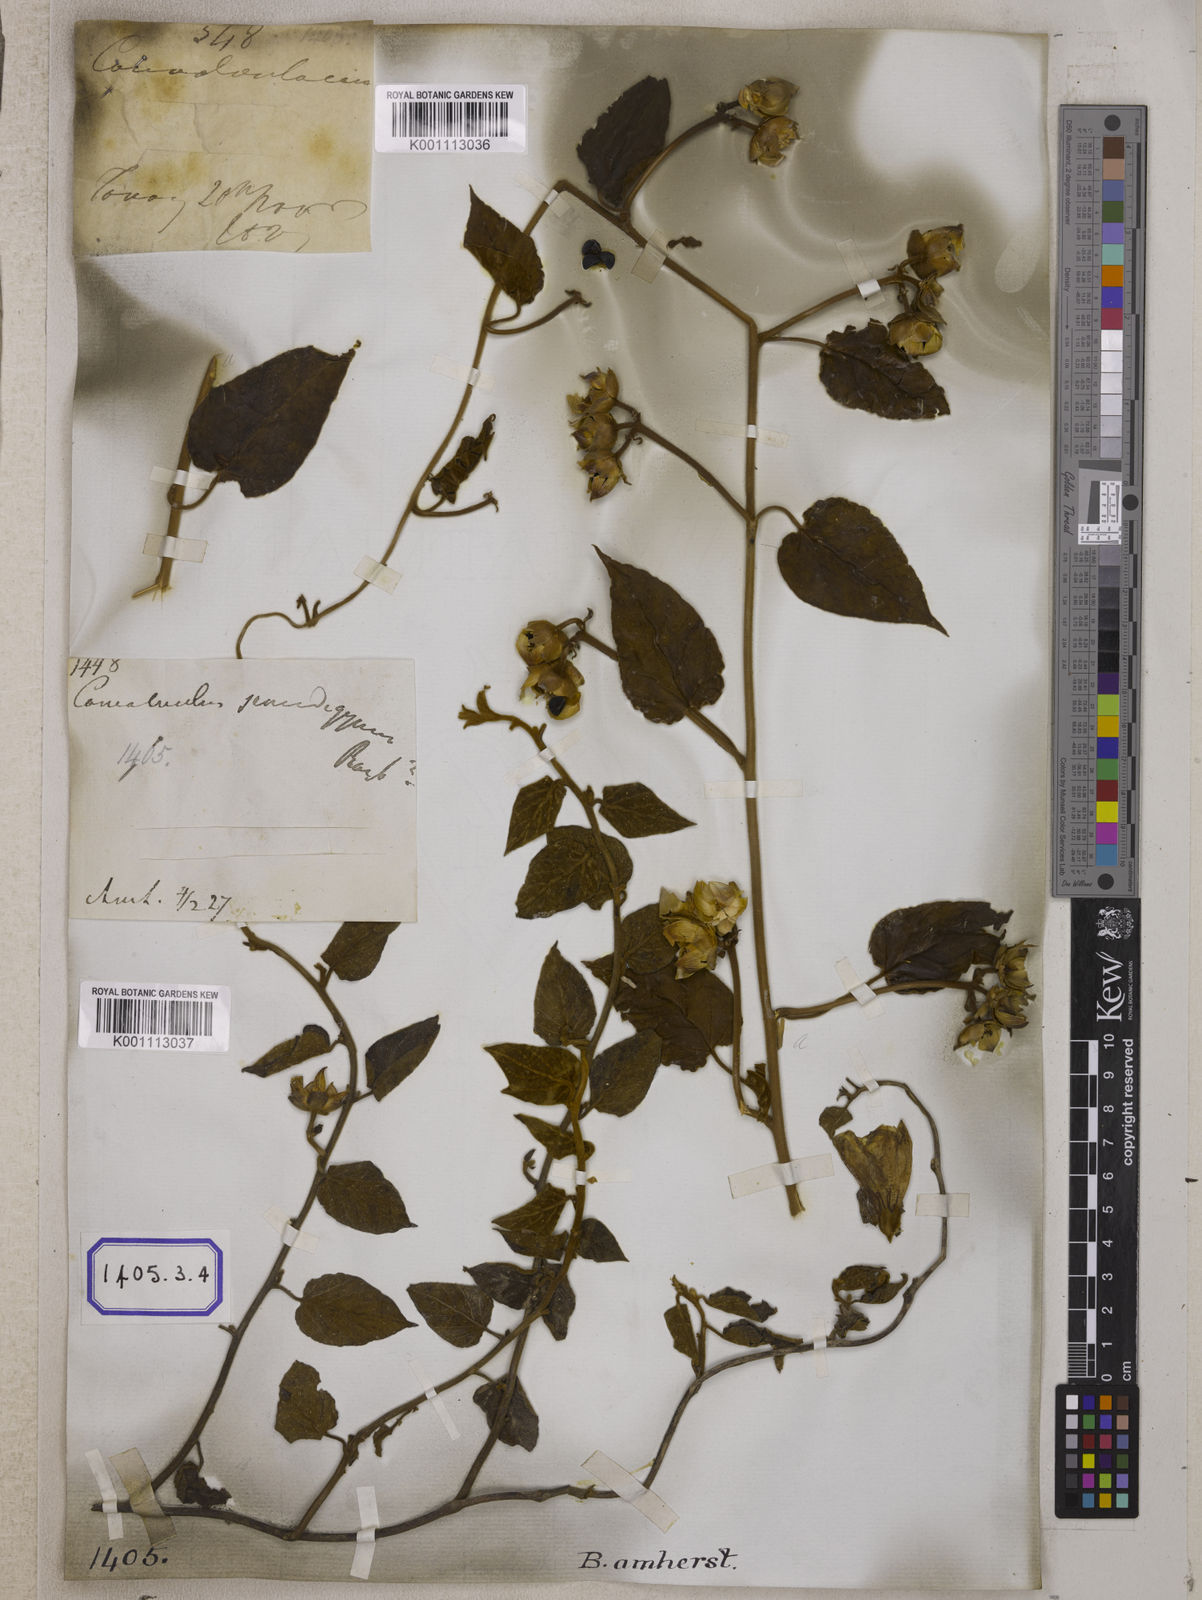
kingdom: Plantae
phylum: Tracheophyta
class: Magnoliopsida
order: Solanales
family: Convolvulaceae
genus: Bonamia
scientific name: Bonamia semidigyna
